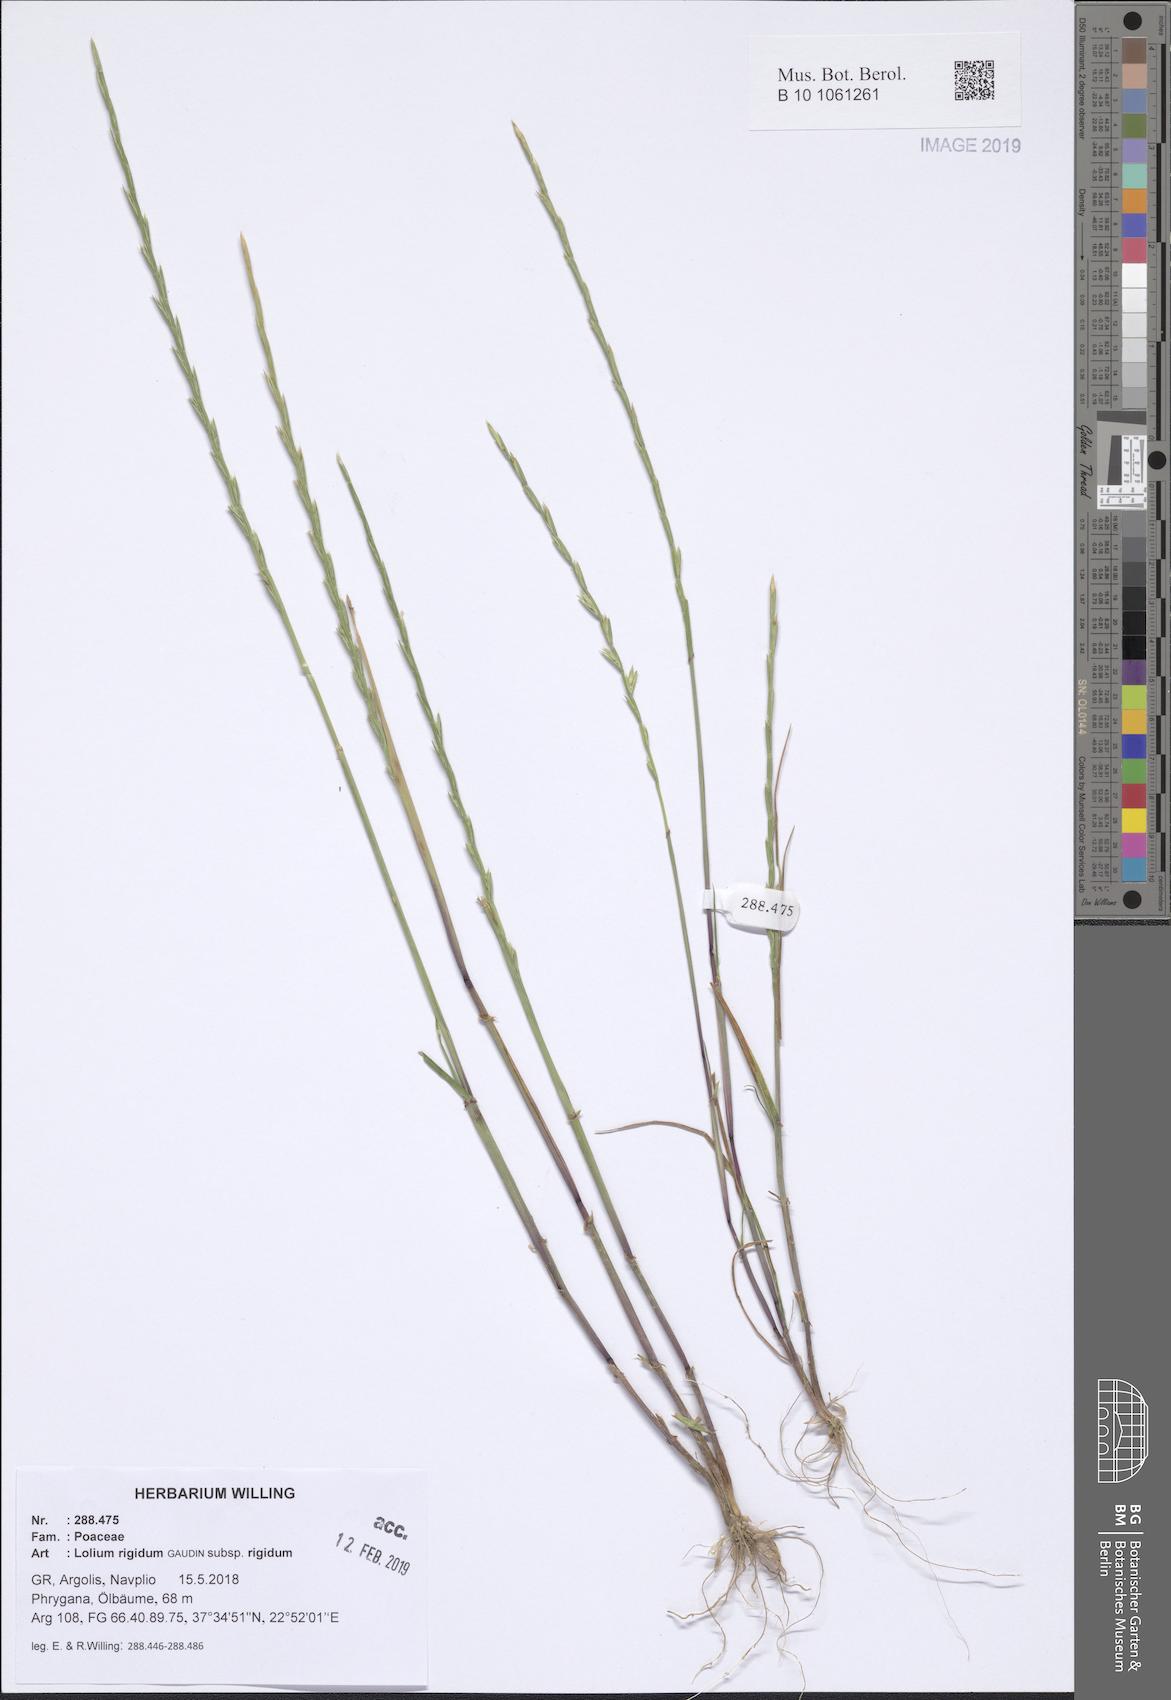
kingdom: Plantae
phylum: Tracheophyta
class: Liliopsida
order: Poales
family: Poaceae
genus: Lolium
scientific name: Lolium rigidum
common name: Wimmera ryegrass
